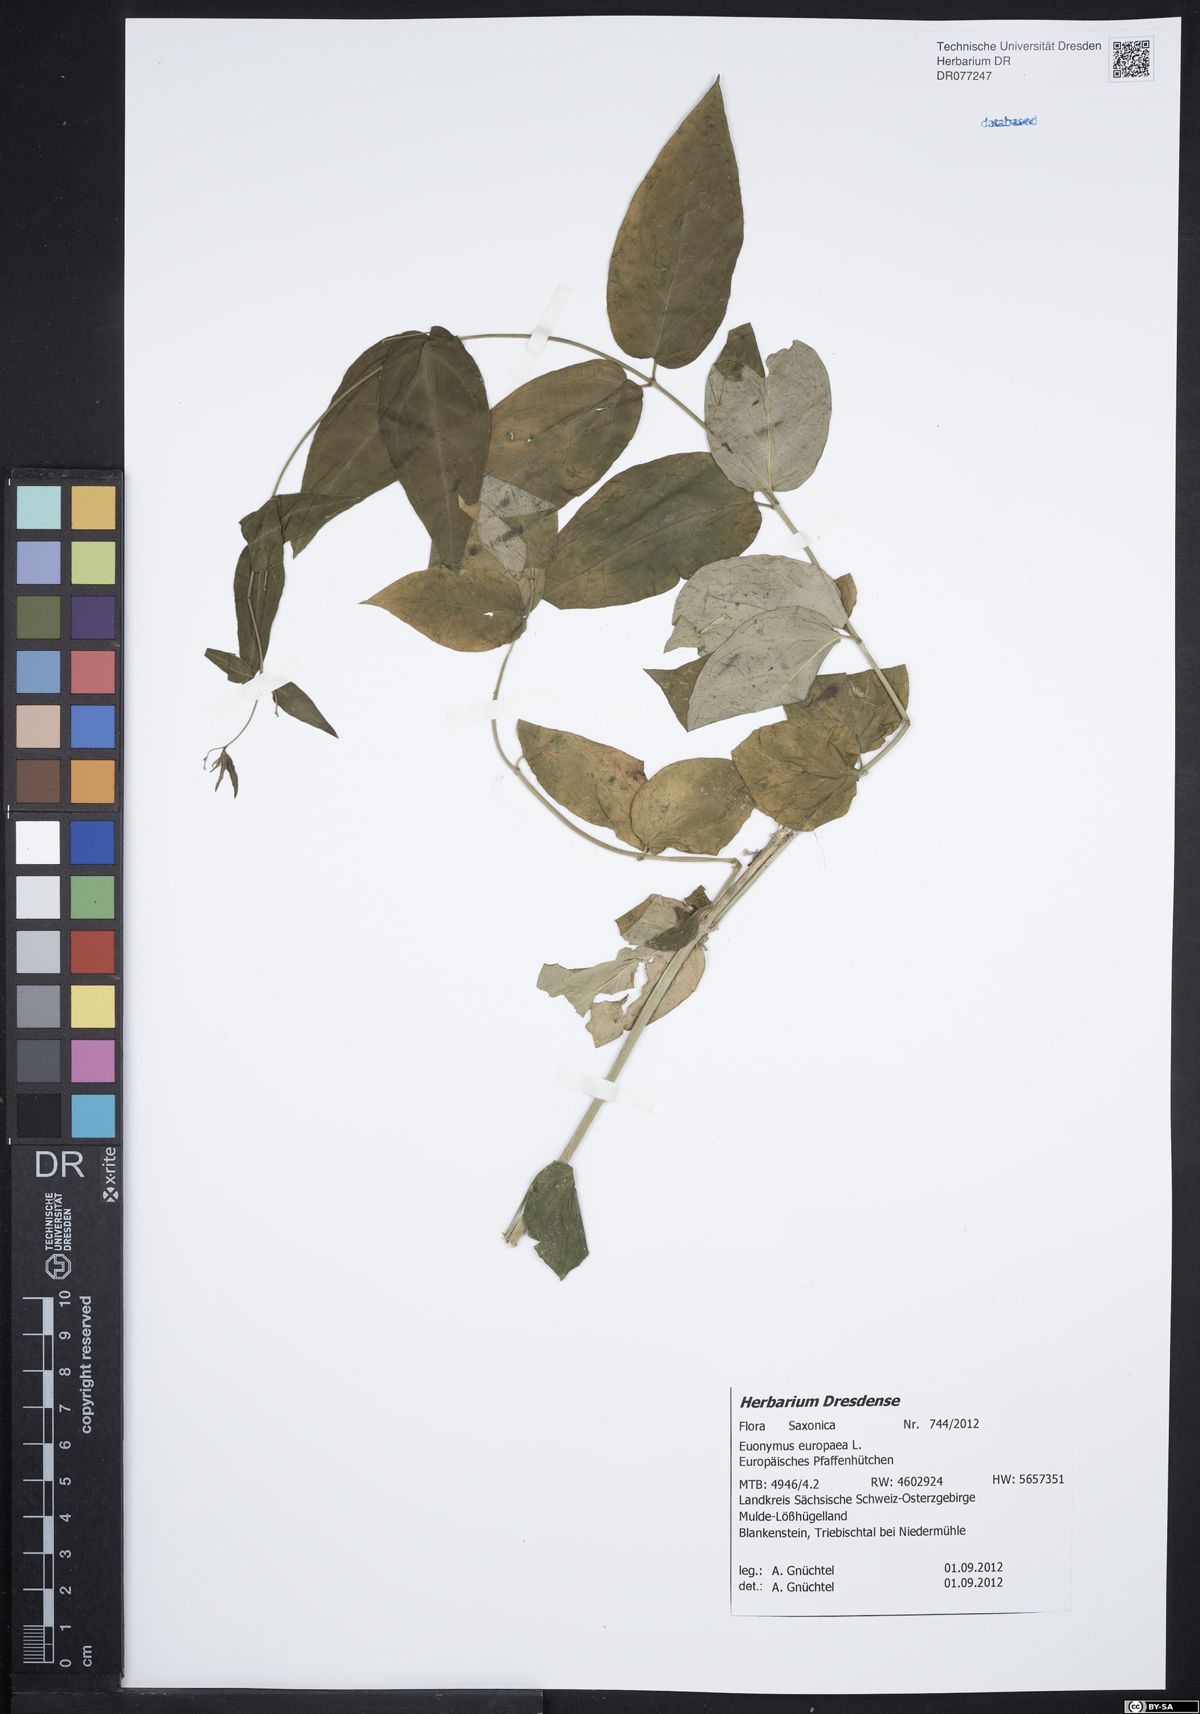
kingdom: Plantae
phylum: Tracheophyta
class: Magnoliopsida
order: Celastrales
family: Celastraceae
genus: Euonymus
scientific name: Euonymus europaeus
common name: Spindle
